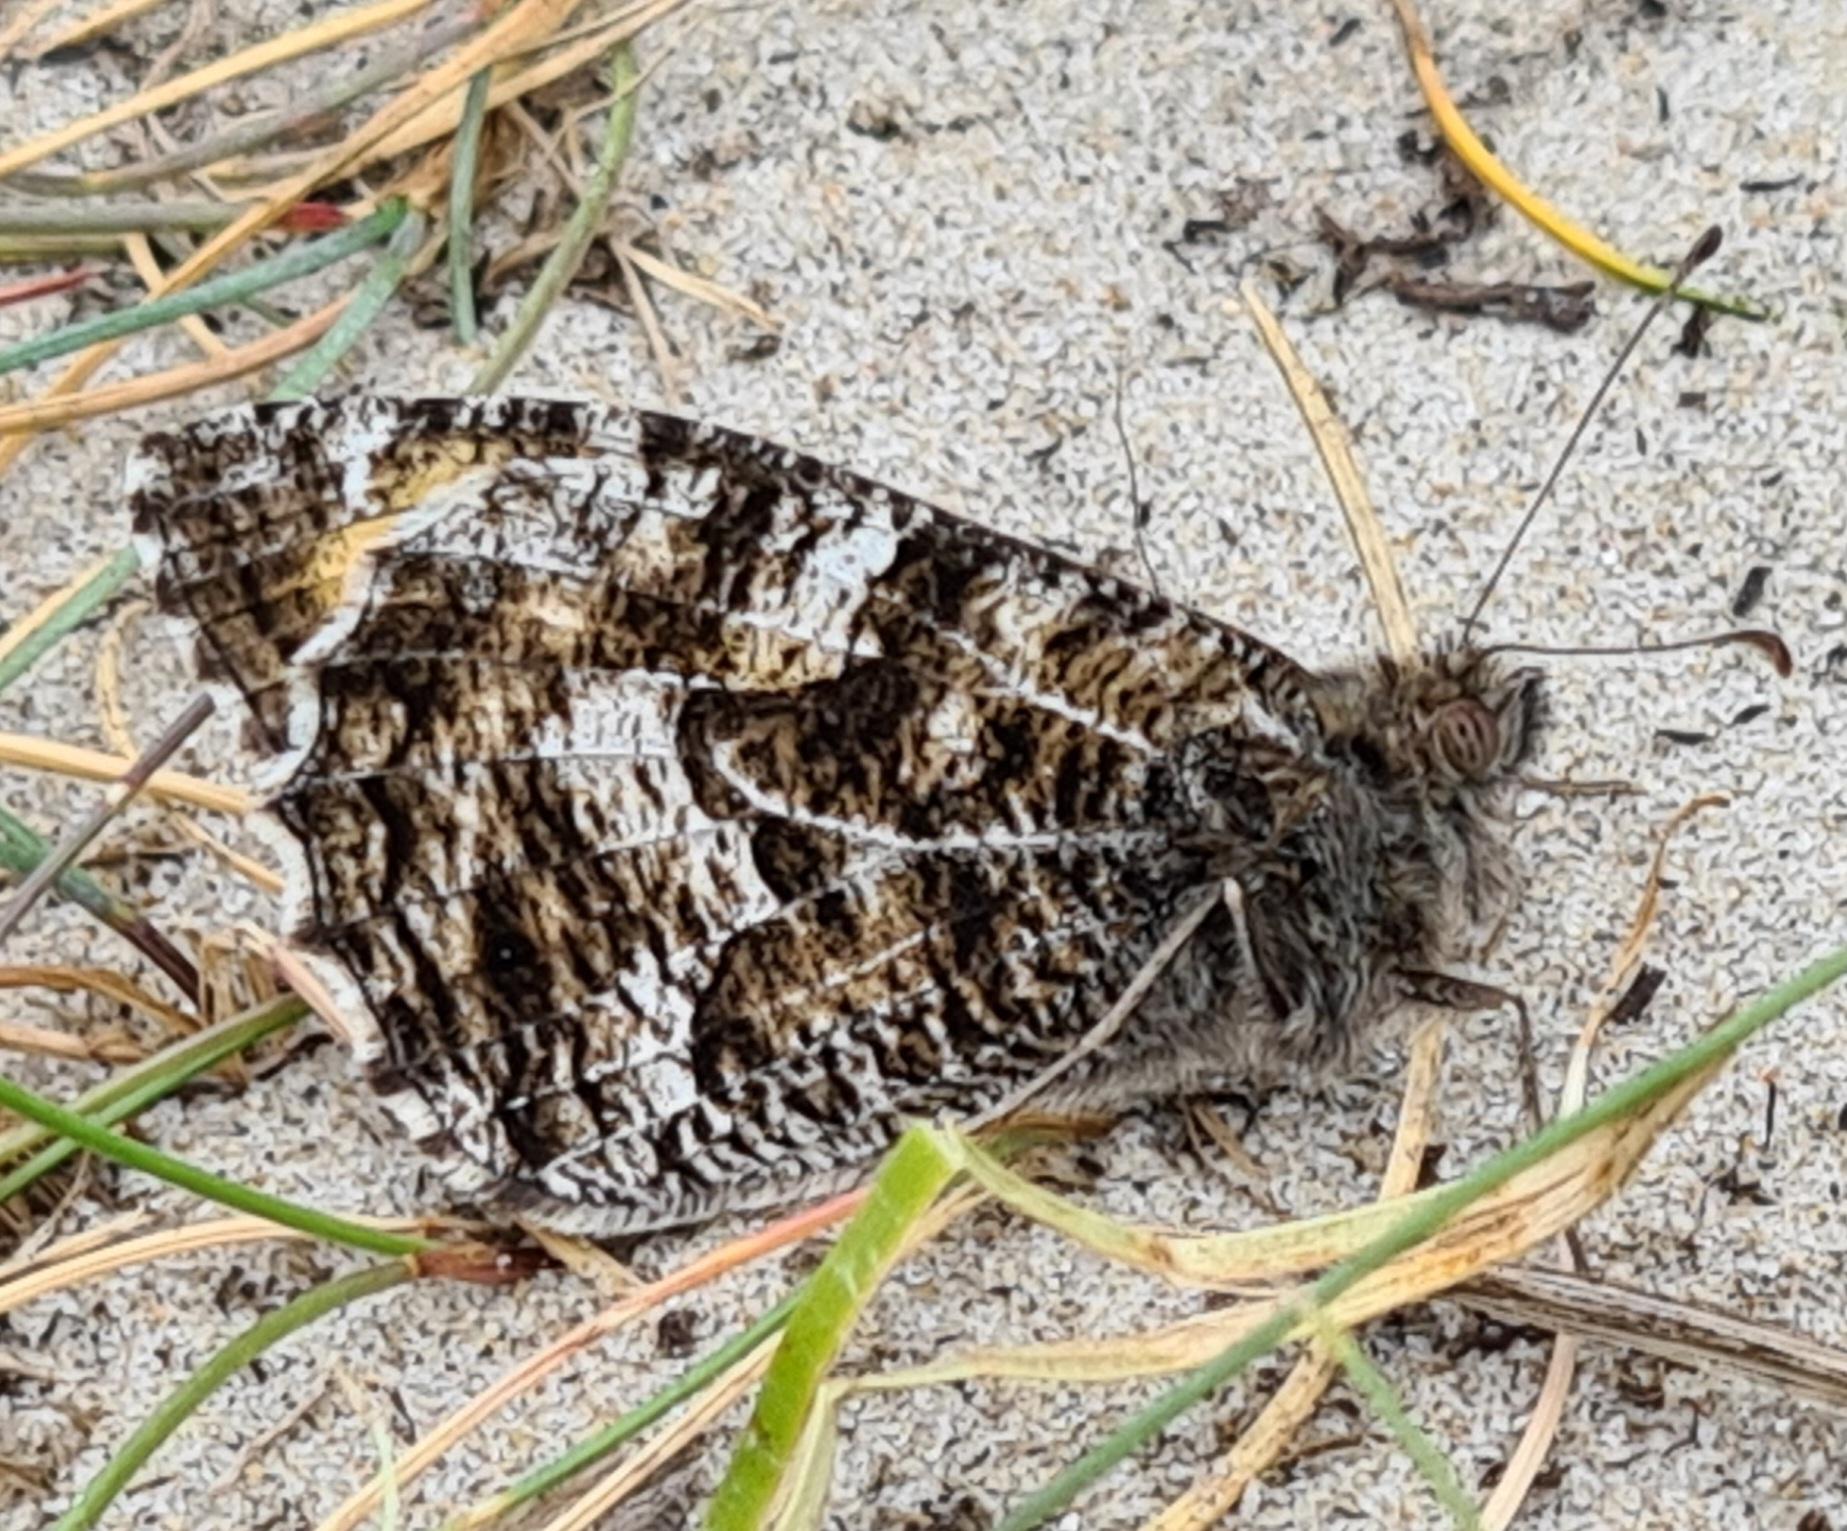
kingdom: Animalia
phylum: Arthropoda
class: Insecta
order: Lepidoptera
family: Nymphalidae
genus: Hipparchia
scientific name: Hipparchia semele
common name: Sandrandøje
